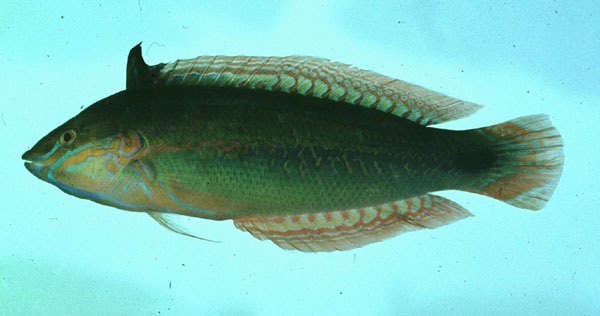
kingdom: Animalia
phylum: Chordata
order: Perciformes
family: Labridae
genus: Coris
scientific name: Coris caudimacula
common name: Spottail coris
